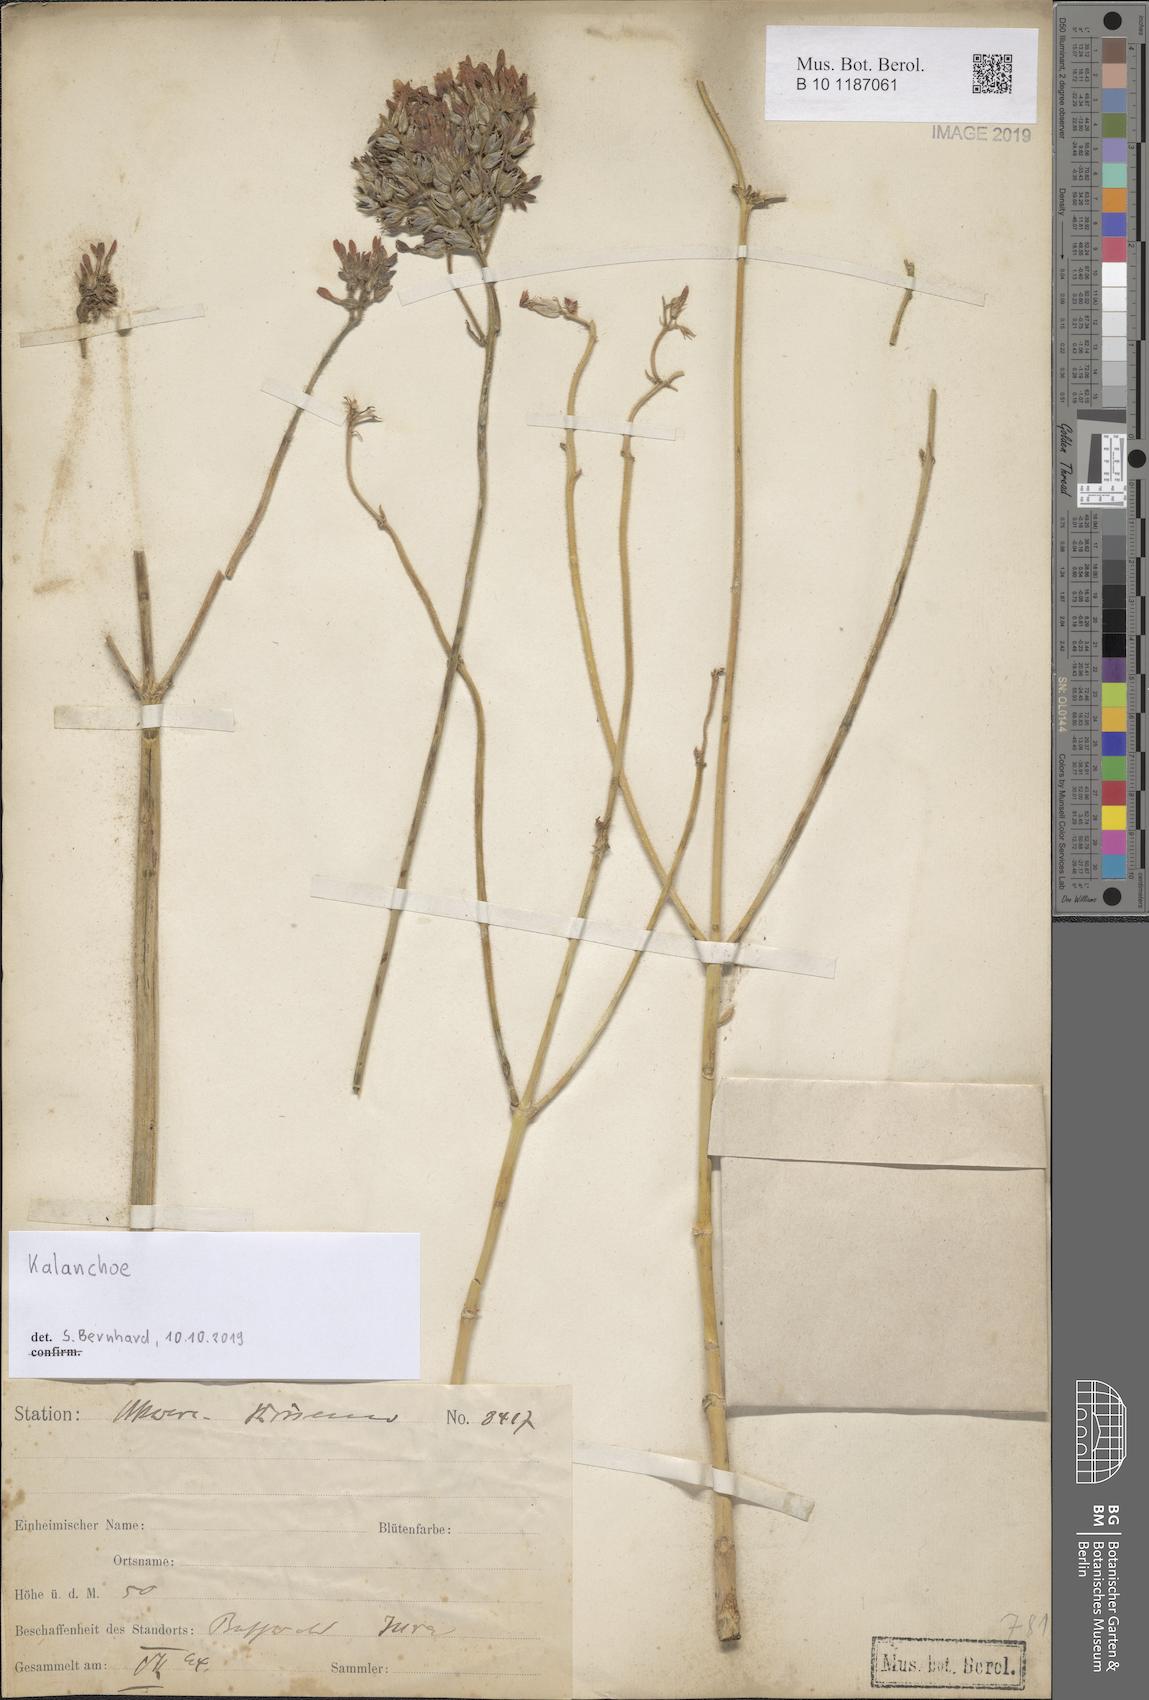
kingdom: Plantae
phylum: Tracheophyta
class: Magnoliopsida
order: Saxifragales
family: Crassulaceae
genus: Kalanchoe
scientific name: Kalanchoe
